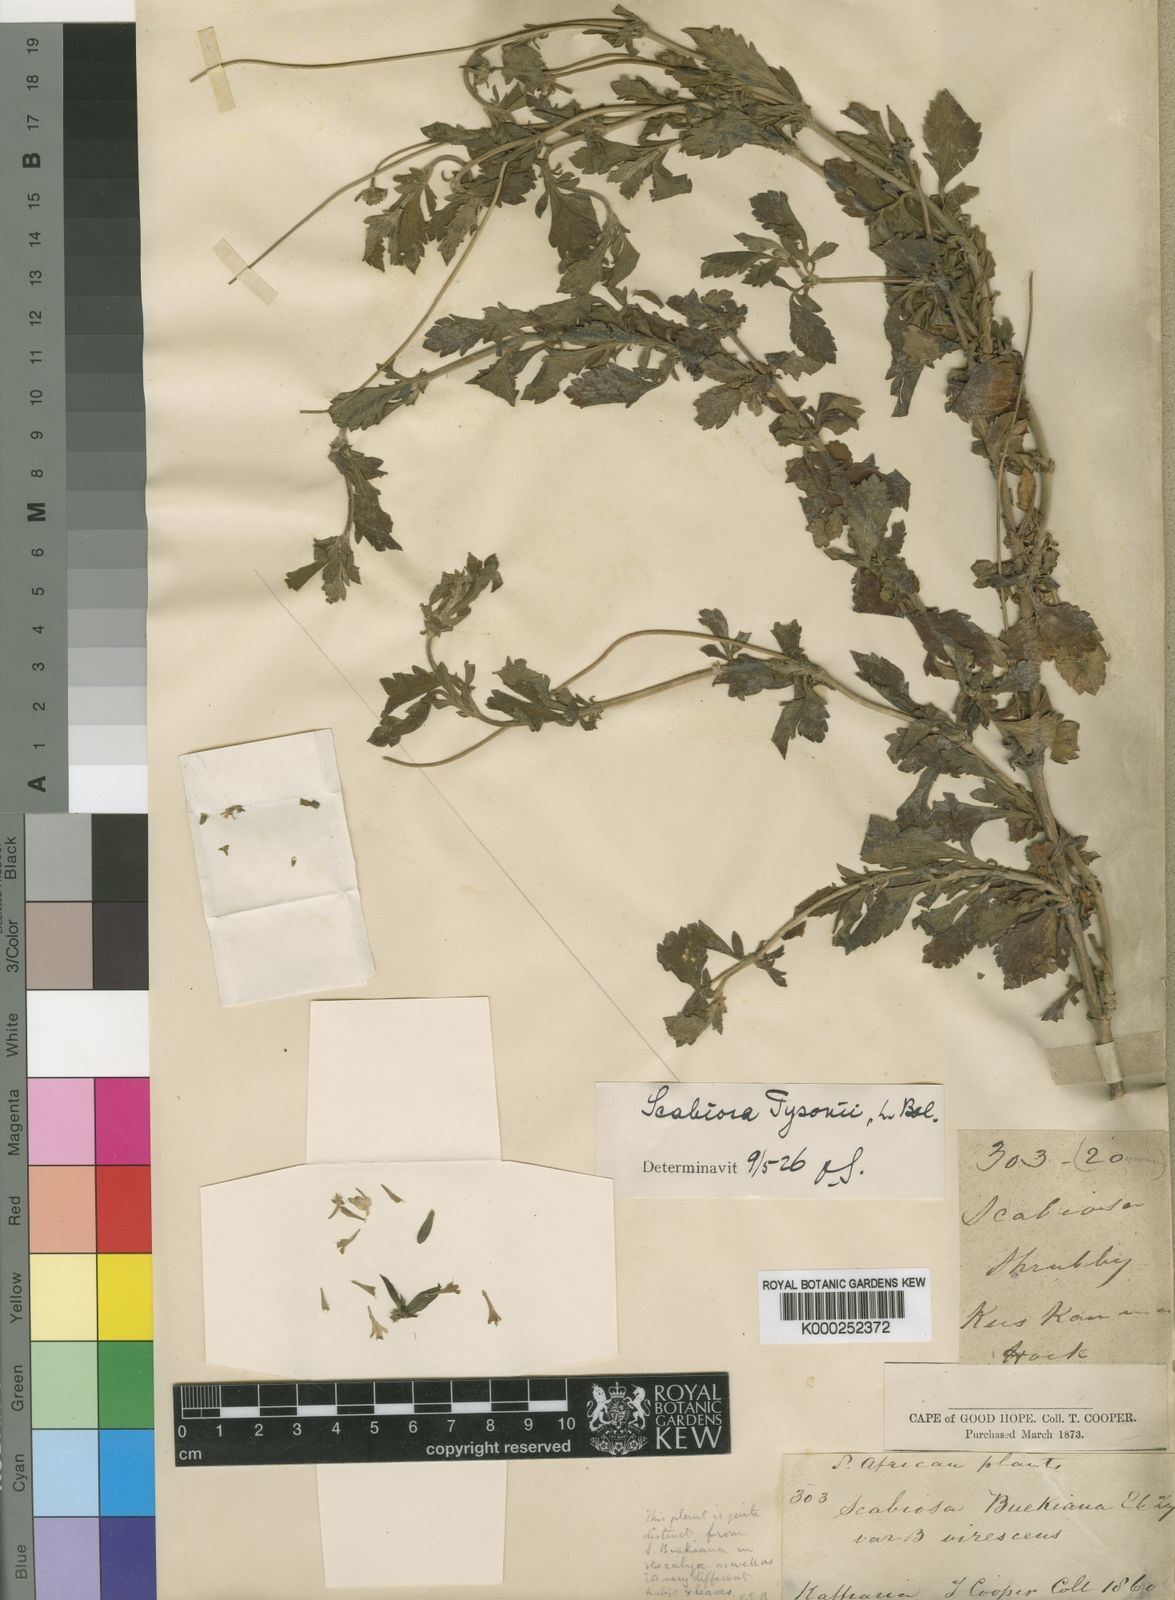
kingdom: Plantae
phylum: Tracheophyta
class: Magnoliopsida
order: Dipsacales
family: Caprifoliaceae
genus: Scabiosa
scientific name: Scabiosa tysonii
